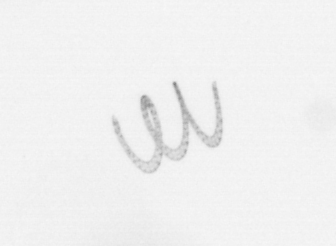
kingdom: Chromista
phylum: Ochrophyta
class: Bacillariophyceae
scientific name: Bacillariophyceae
